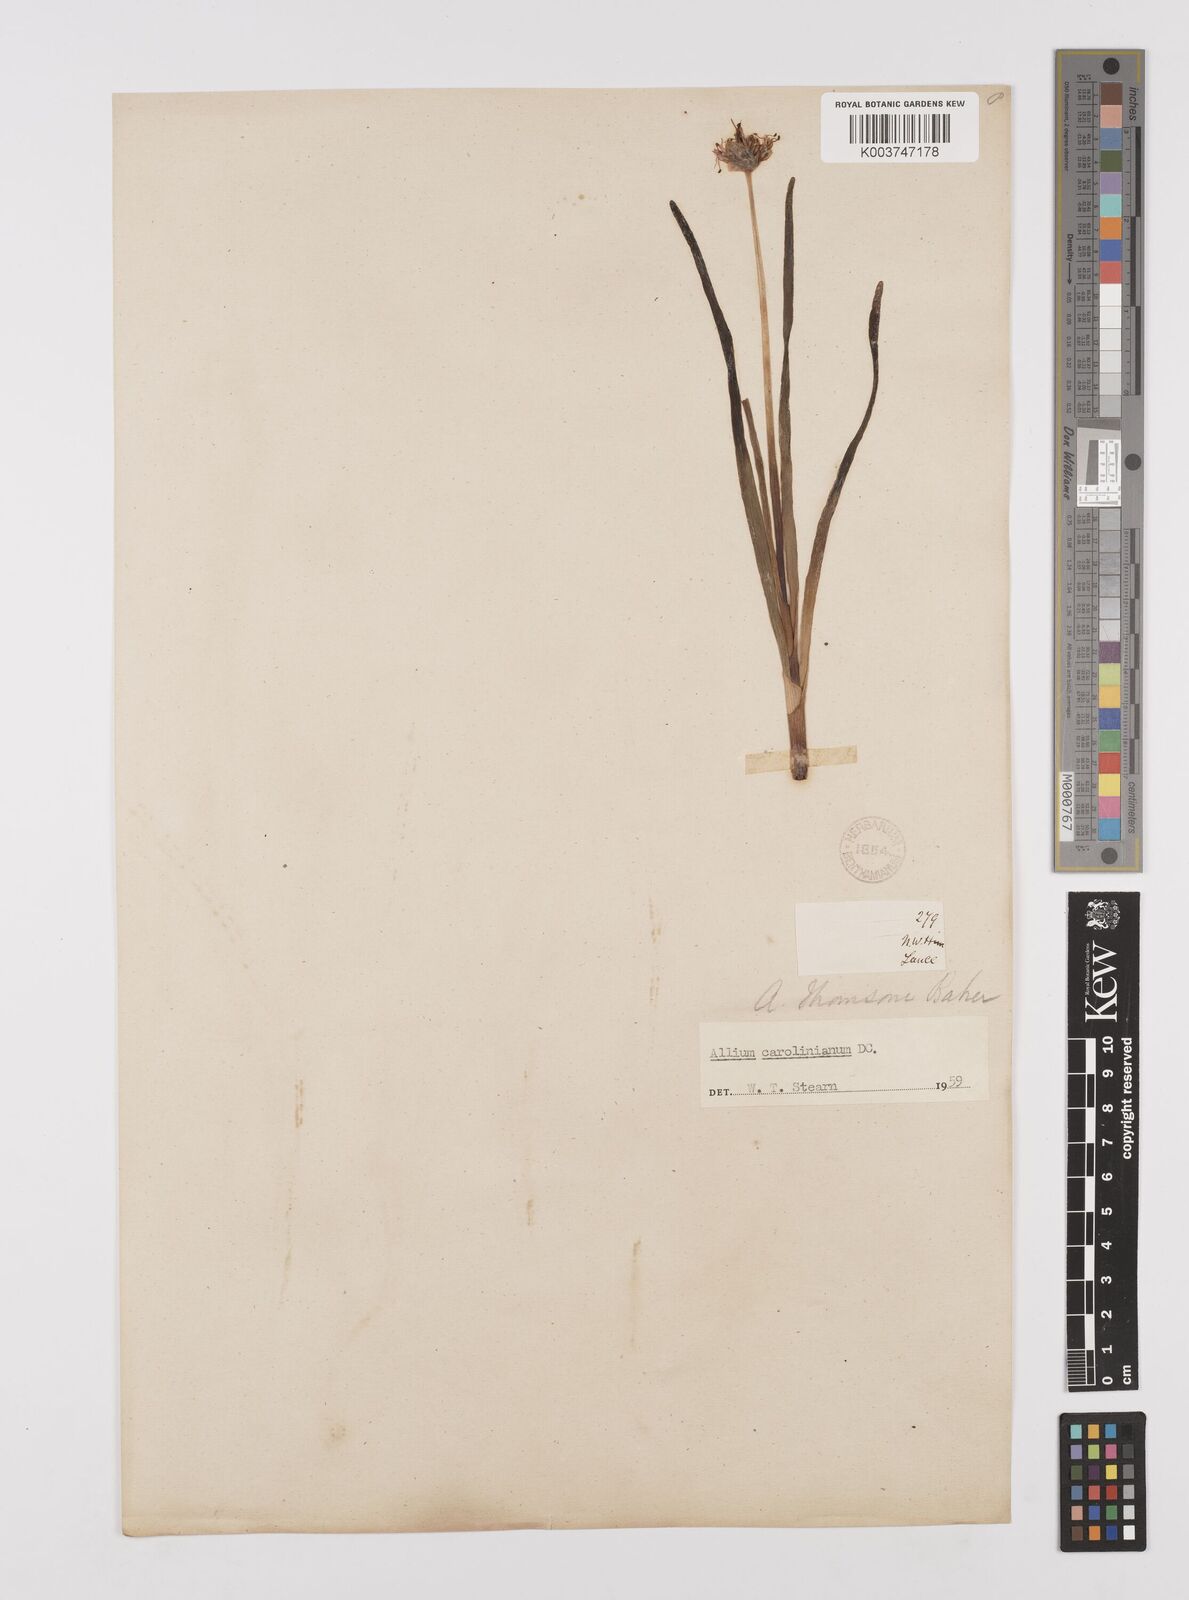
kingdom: Plantae
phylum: Tracheophyta
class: Liliopsida
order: Asparagales
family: Amaryllidaceae
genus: Allium
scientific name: Allium carolinianum
